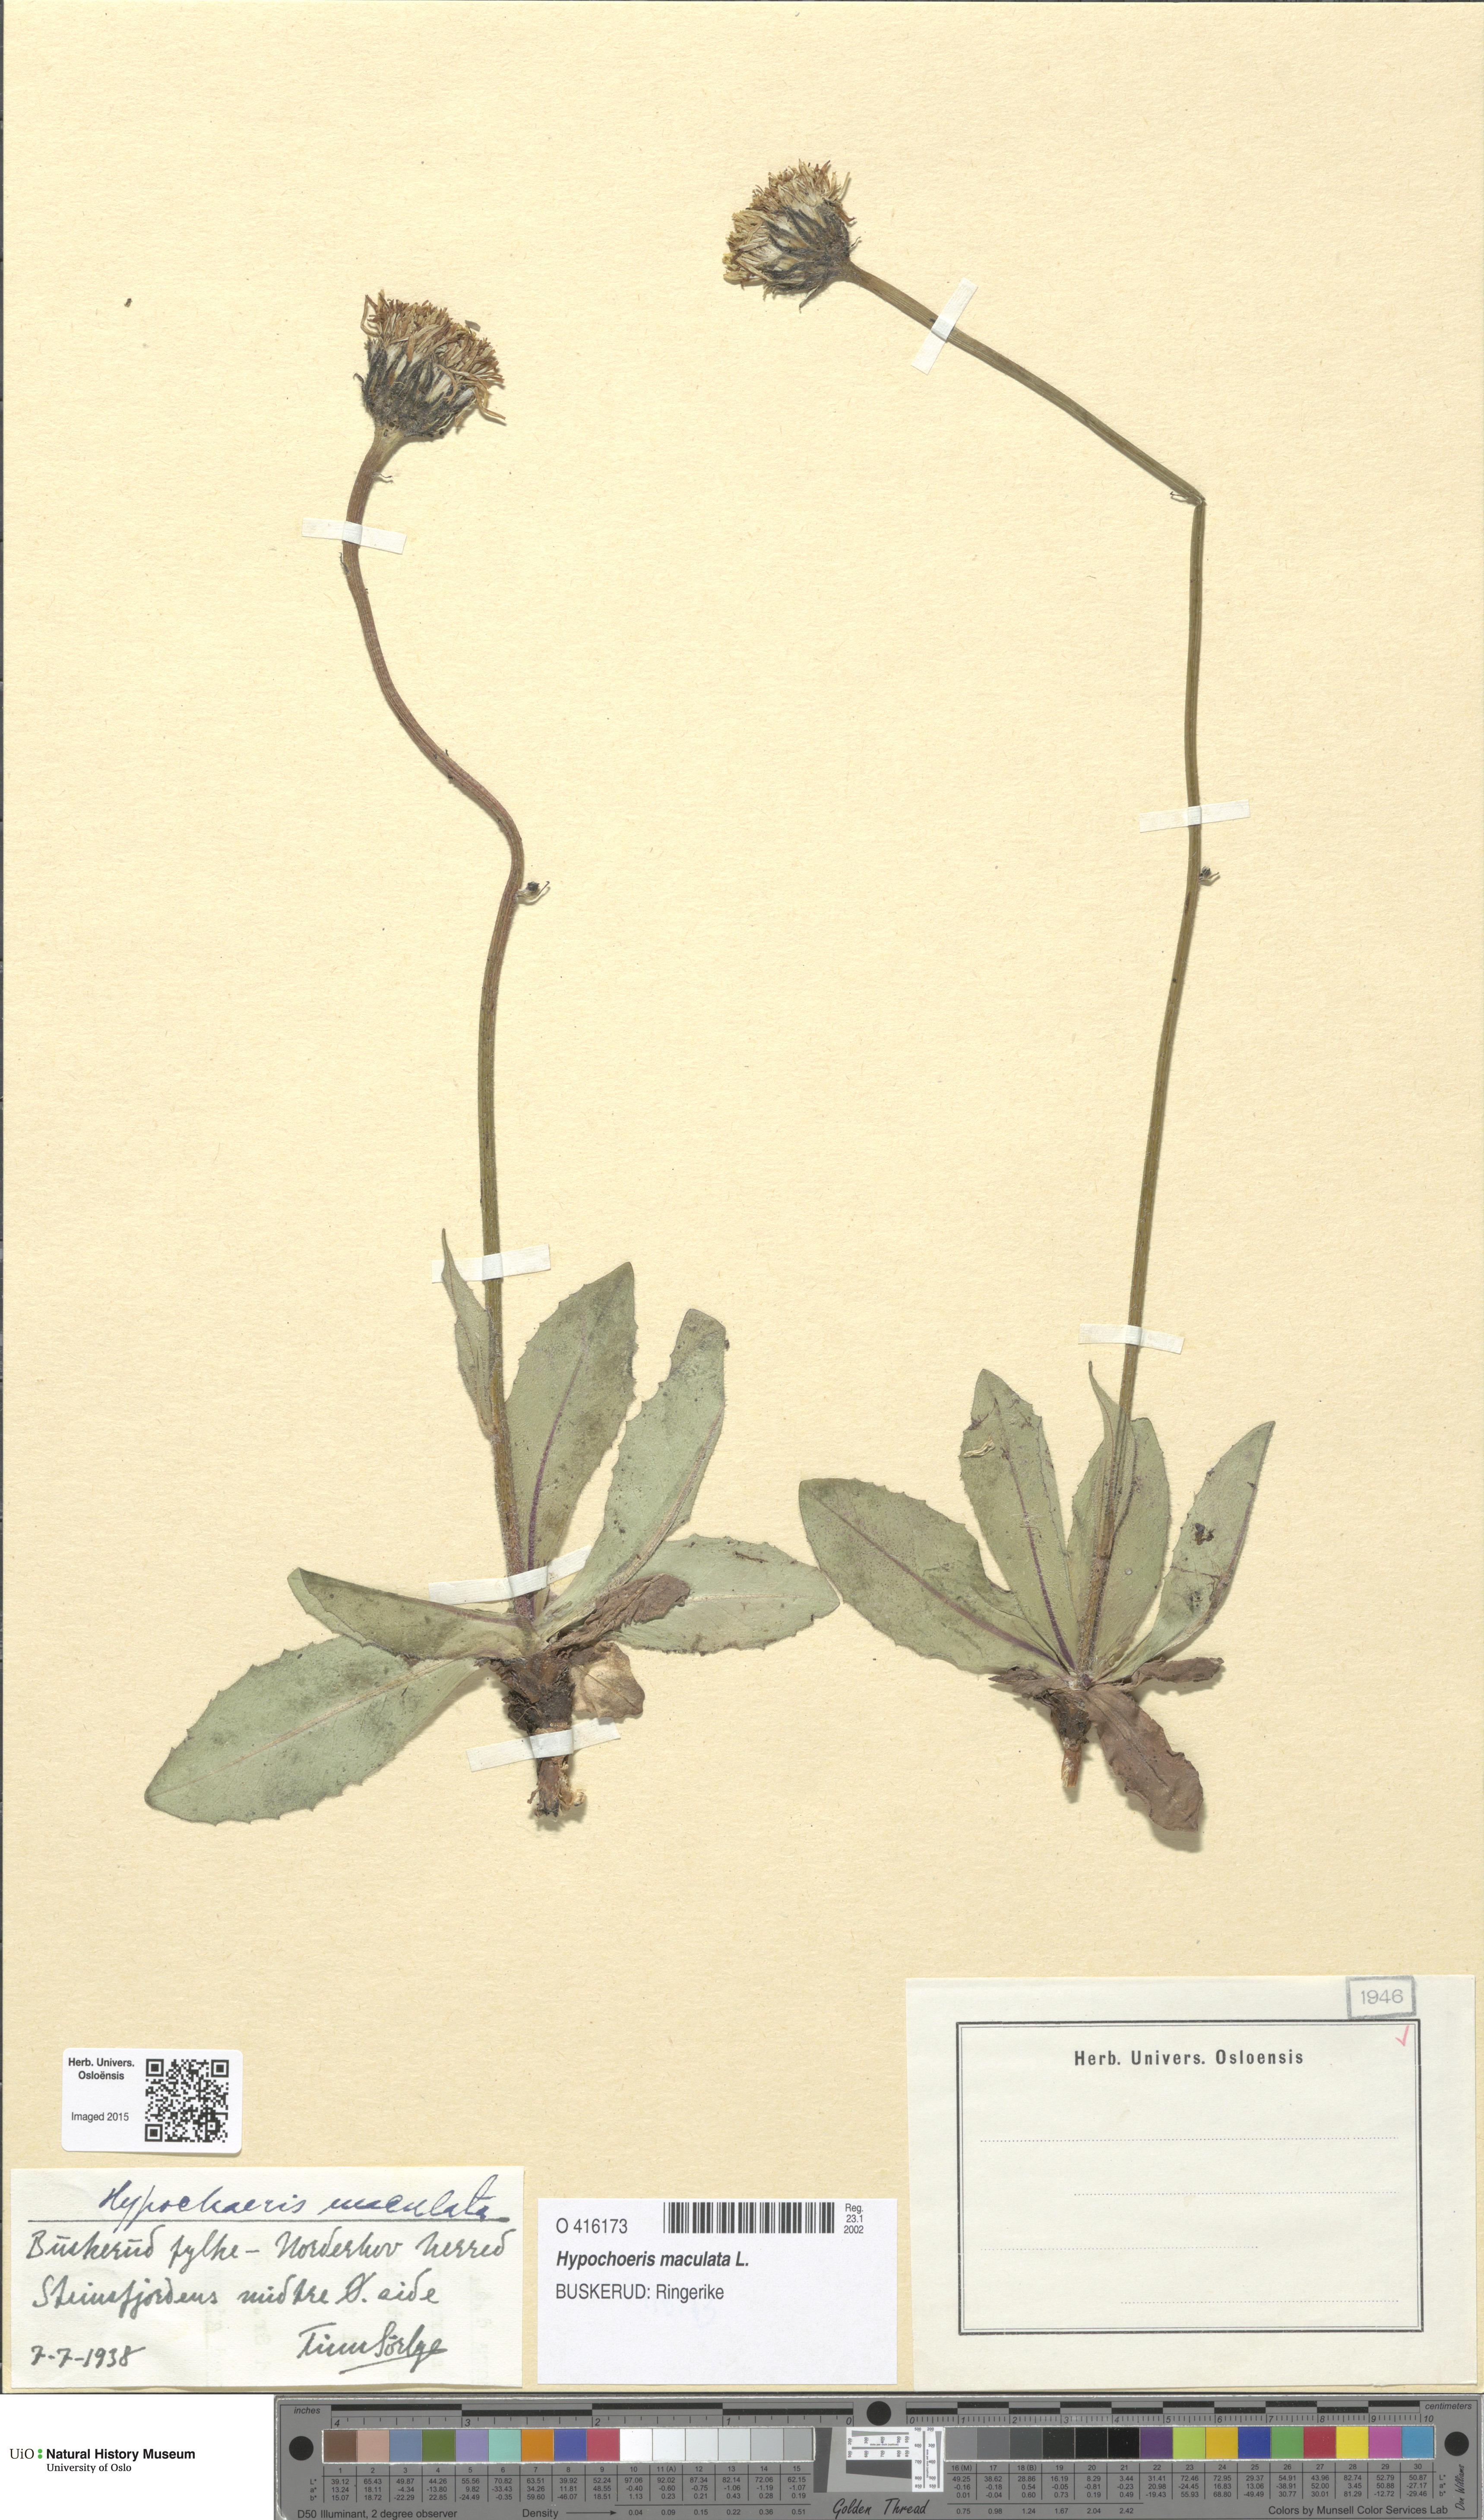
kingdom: Plantae
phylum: Tracheophyta
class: Magnoliopsida
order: Asterales
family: Asteraceae
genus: Trommsdorffia
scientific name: Trommsdorffia maculata
